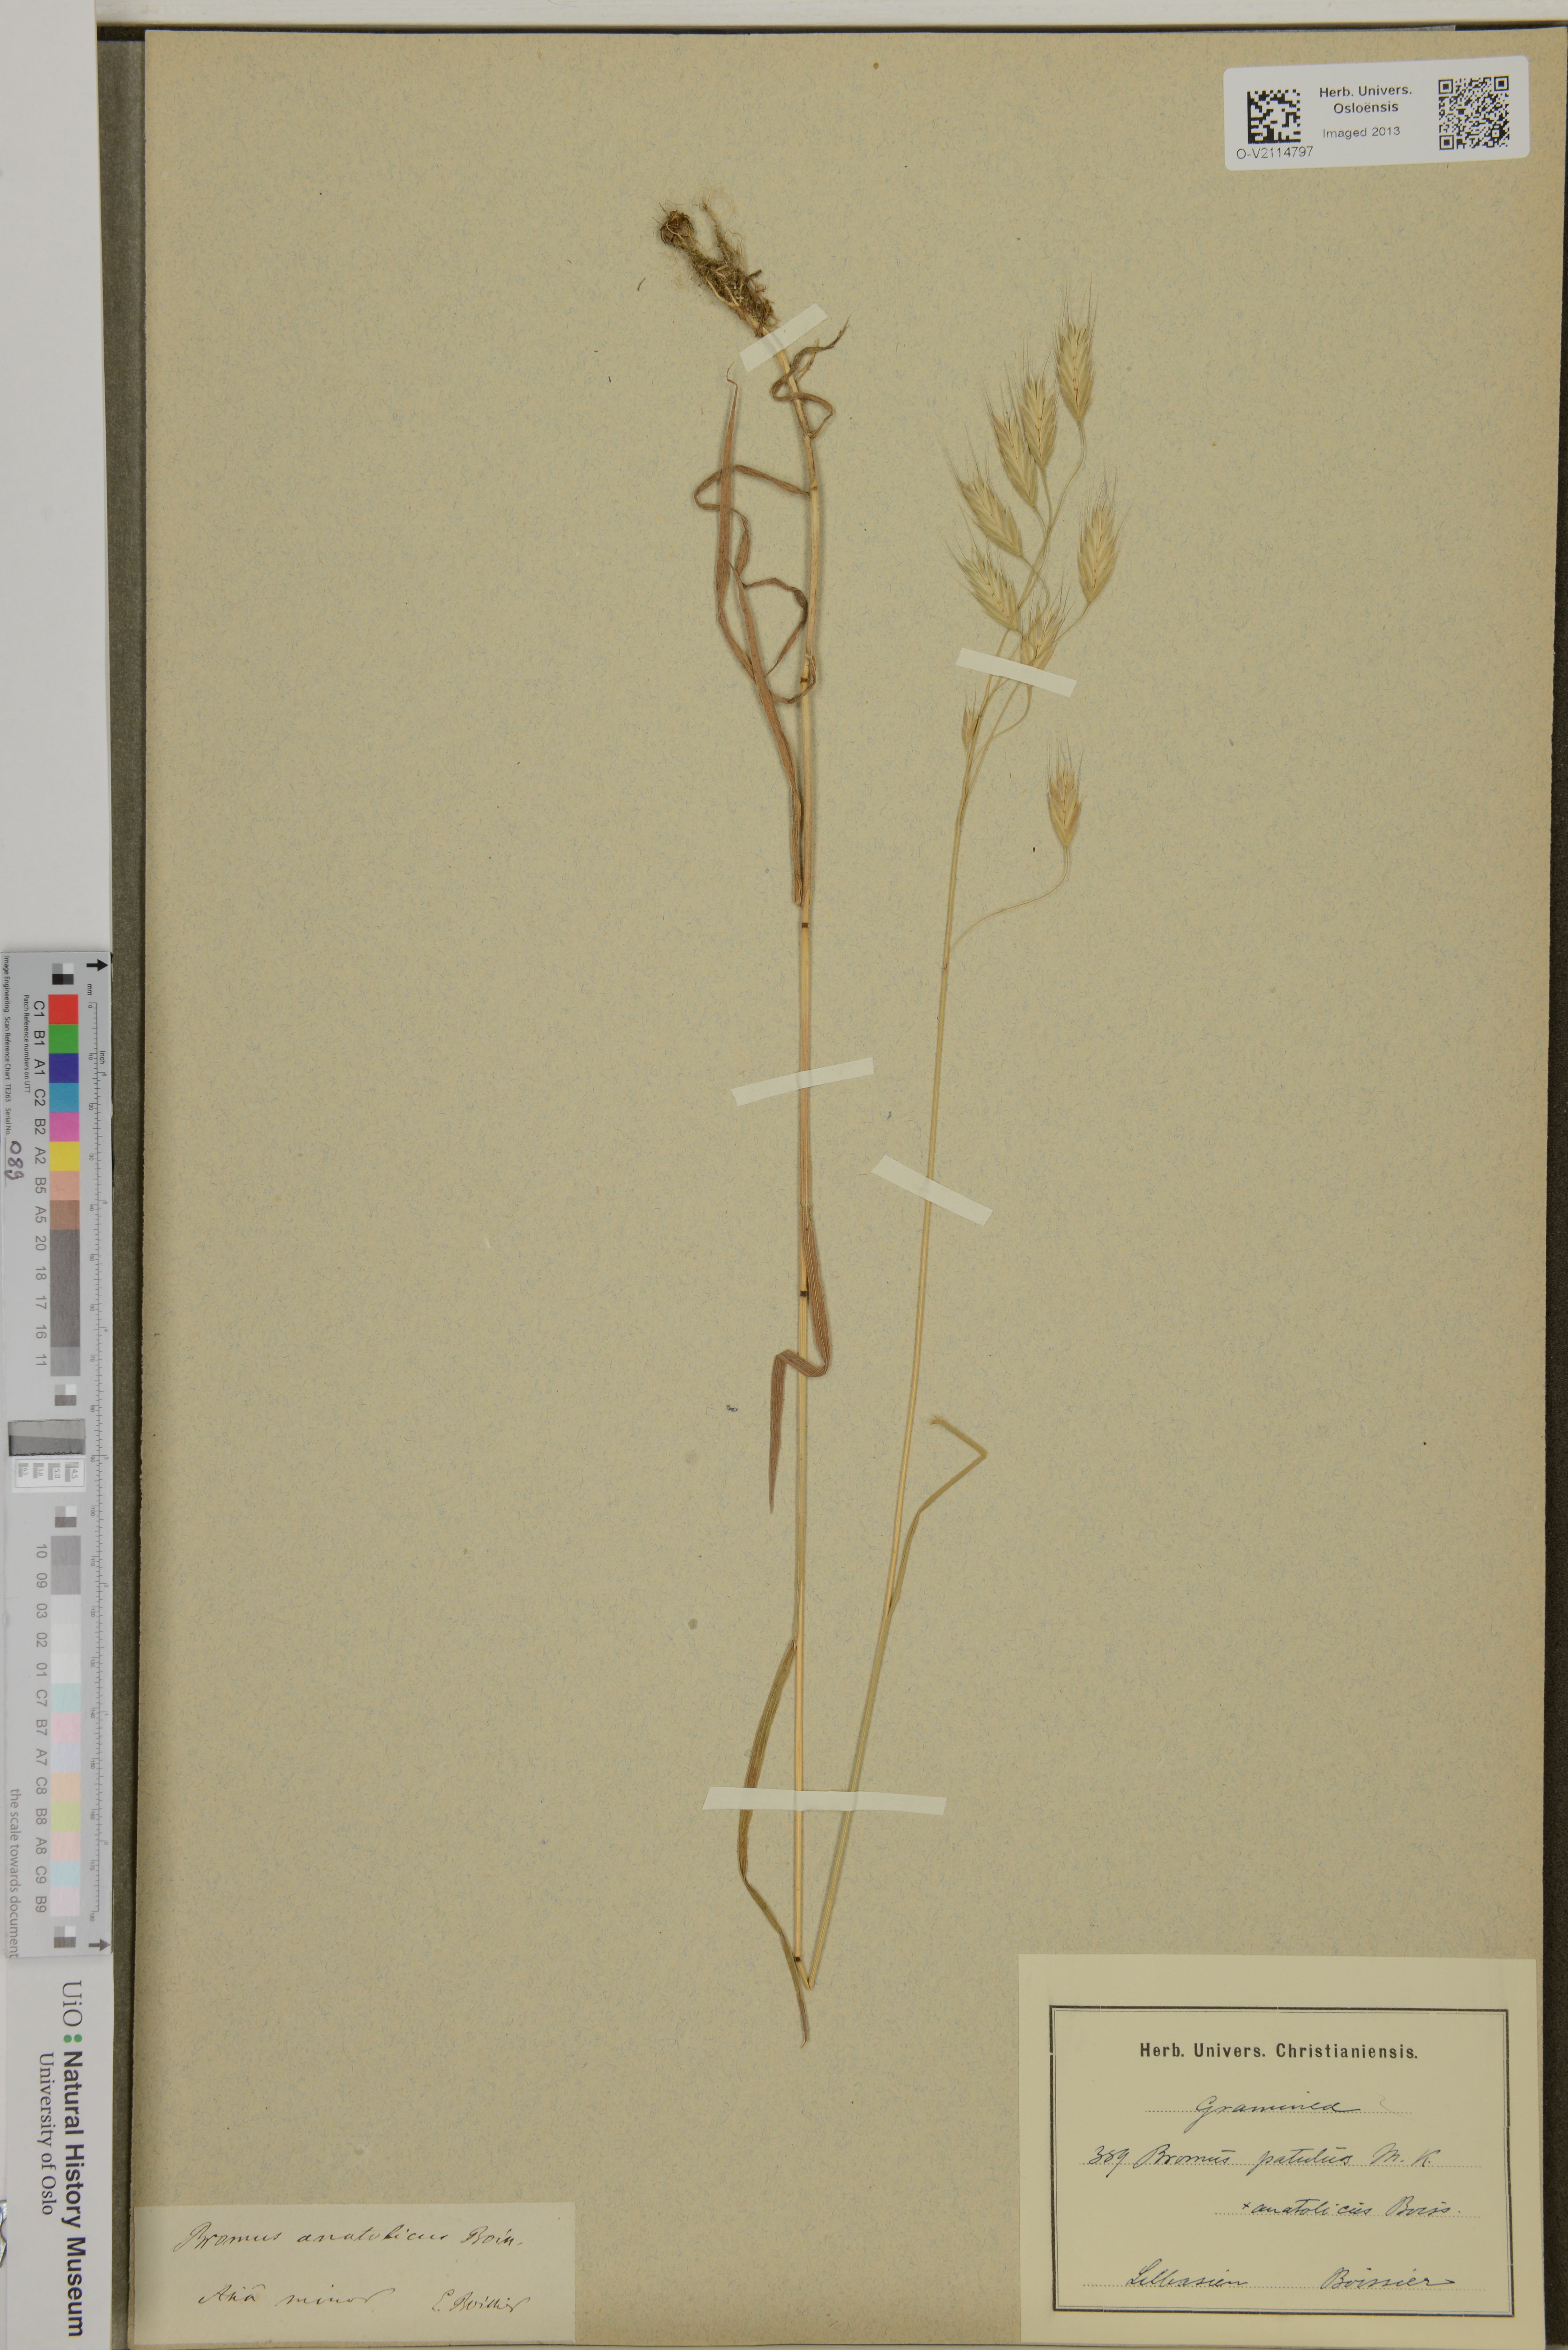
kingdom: Plantae
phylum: Tracheophyta
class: Liliopsida
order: Poales
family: Poaceae
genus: Bromus
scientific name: Bromus japonicus
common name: Japanese brome
